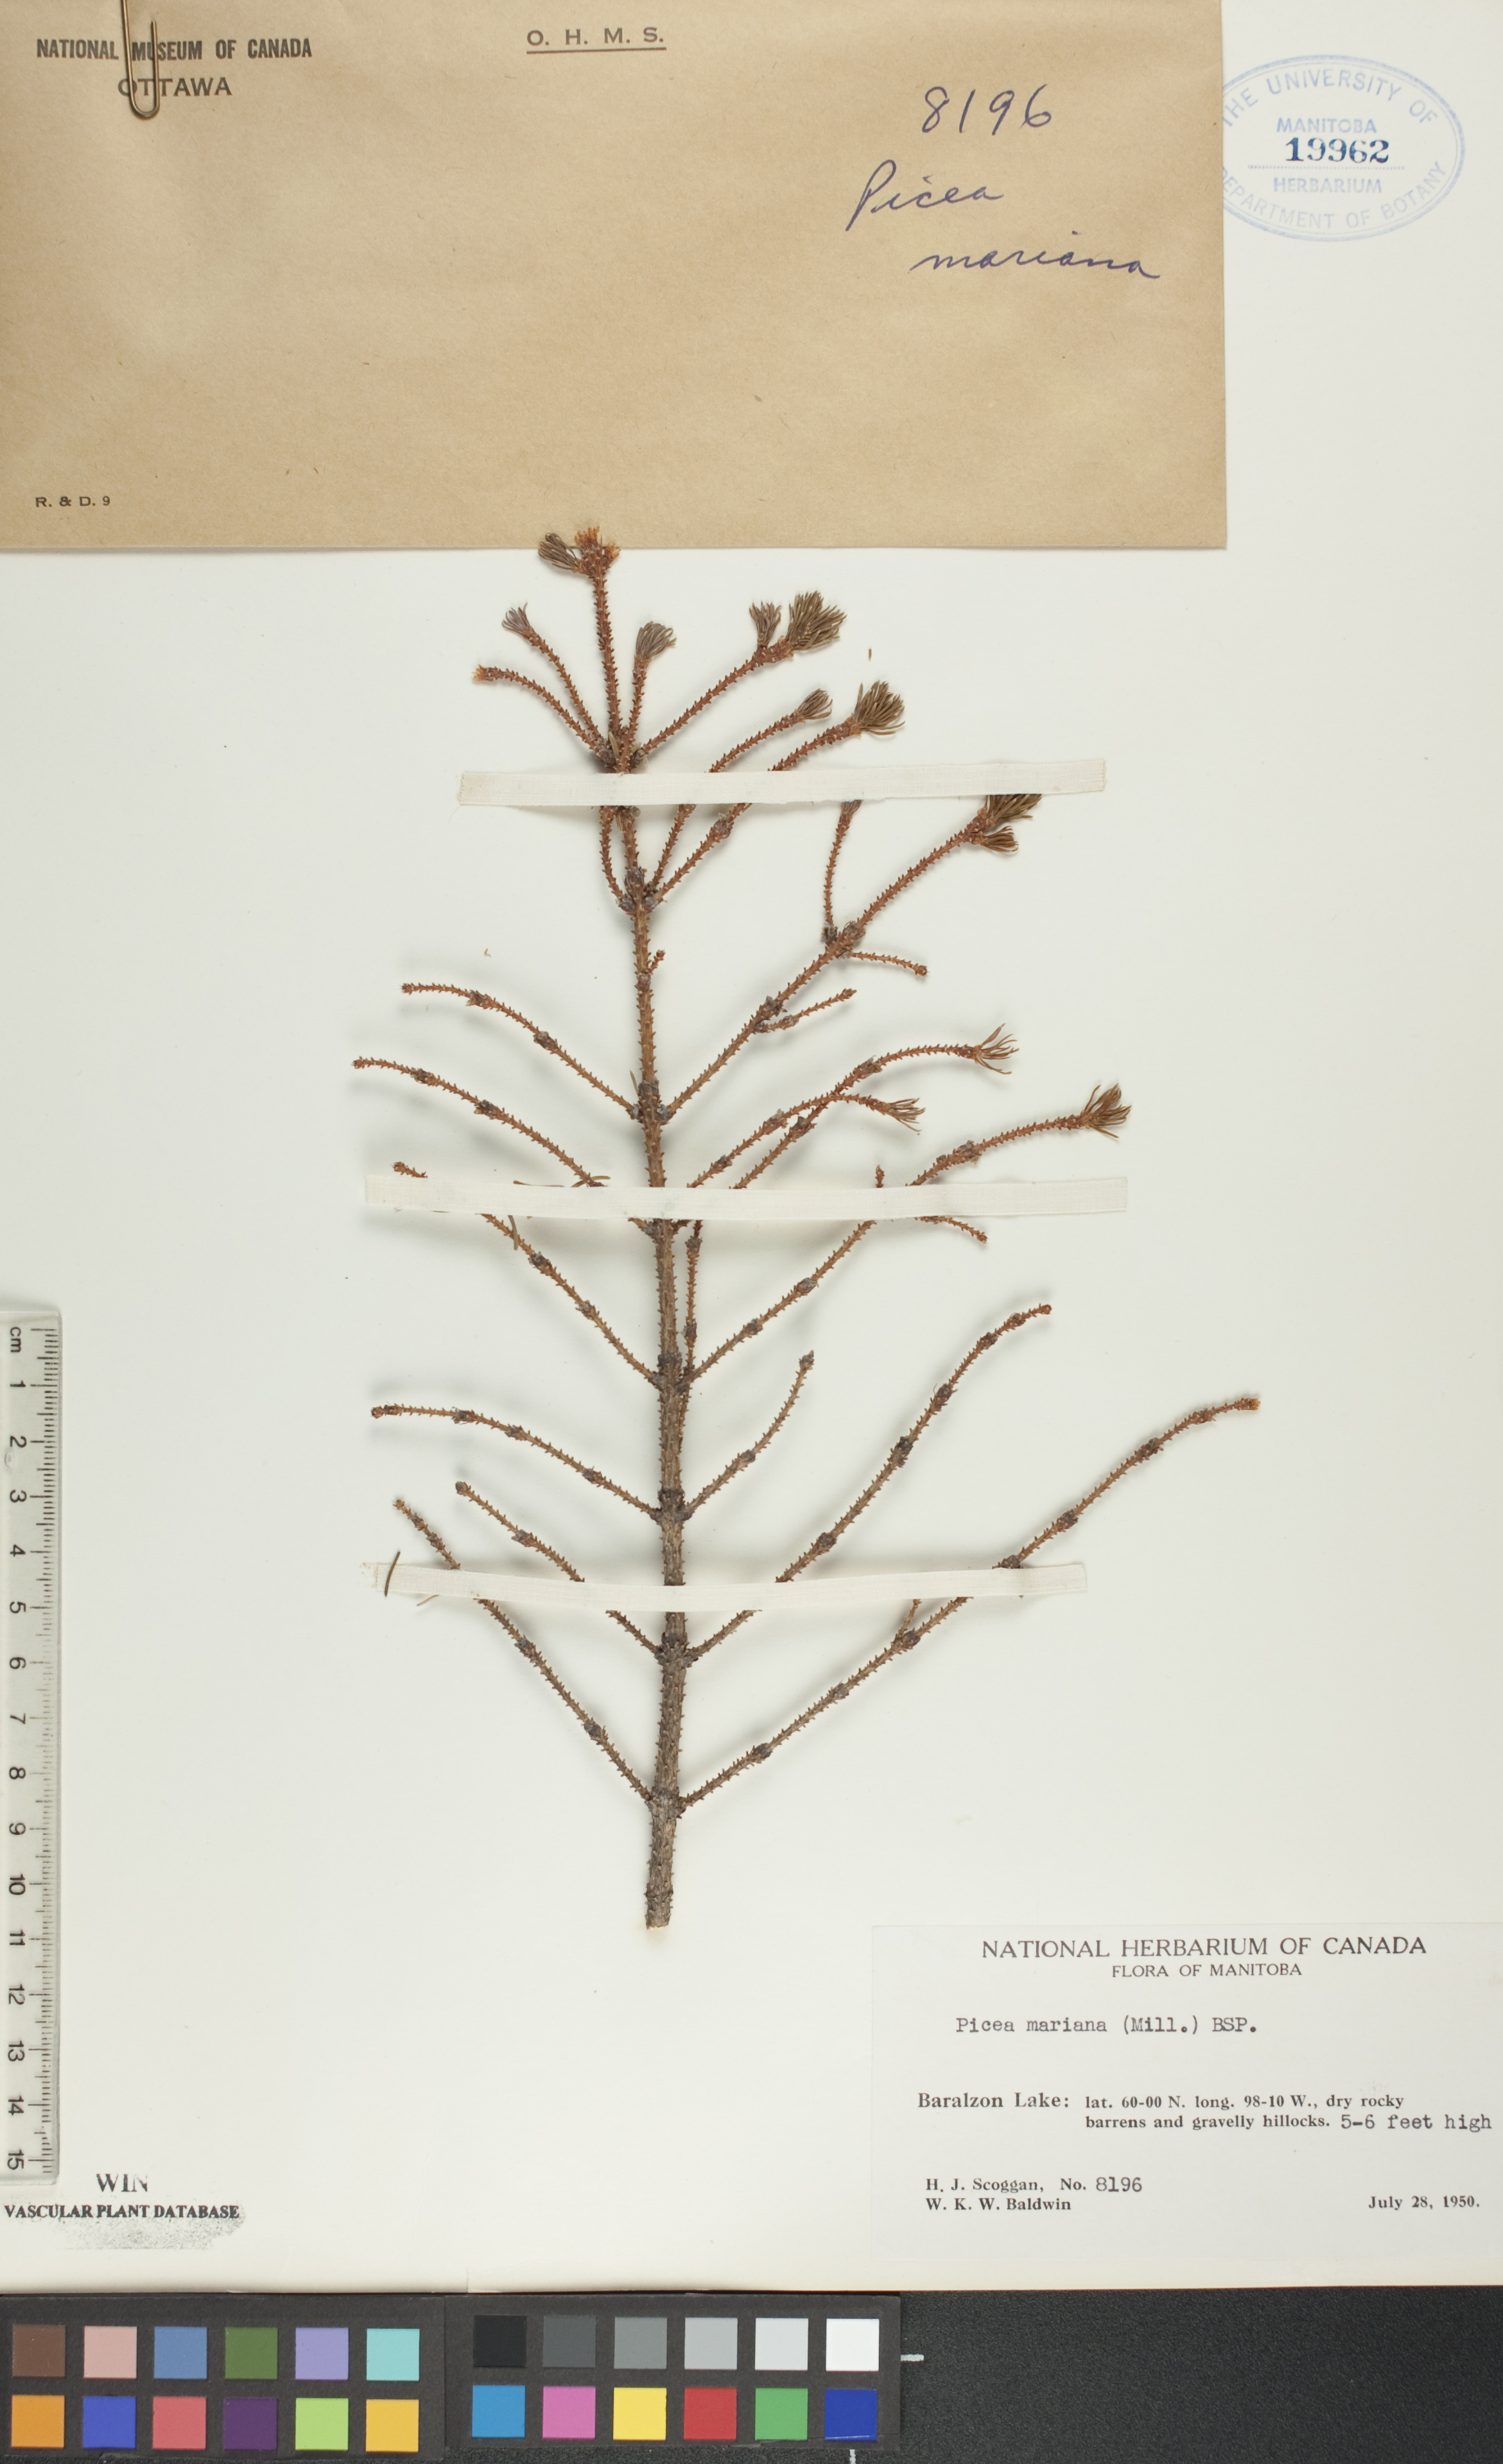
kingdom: Plantae
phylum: Tracheophyta
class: Pinopsida
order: Pinales
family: Pinaceae
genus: Picea
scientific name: Picea mariana
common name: Black spruce
